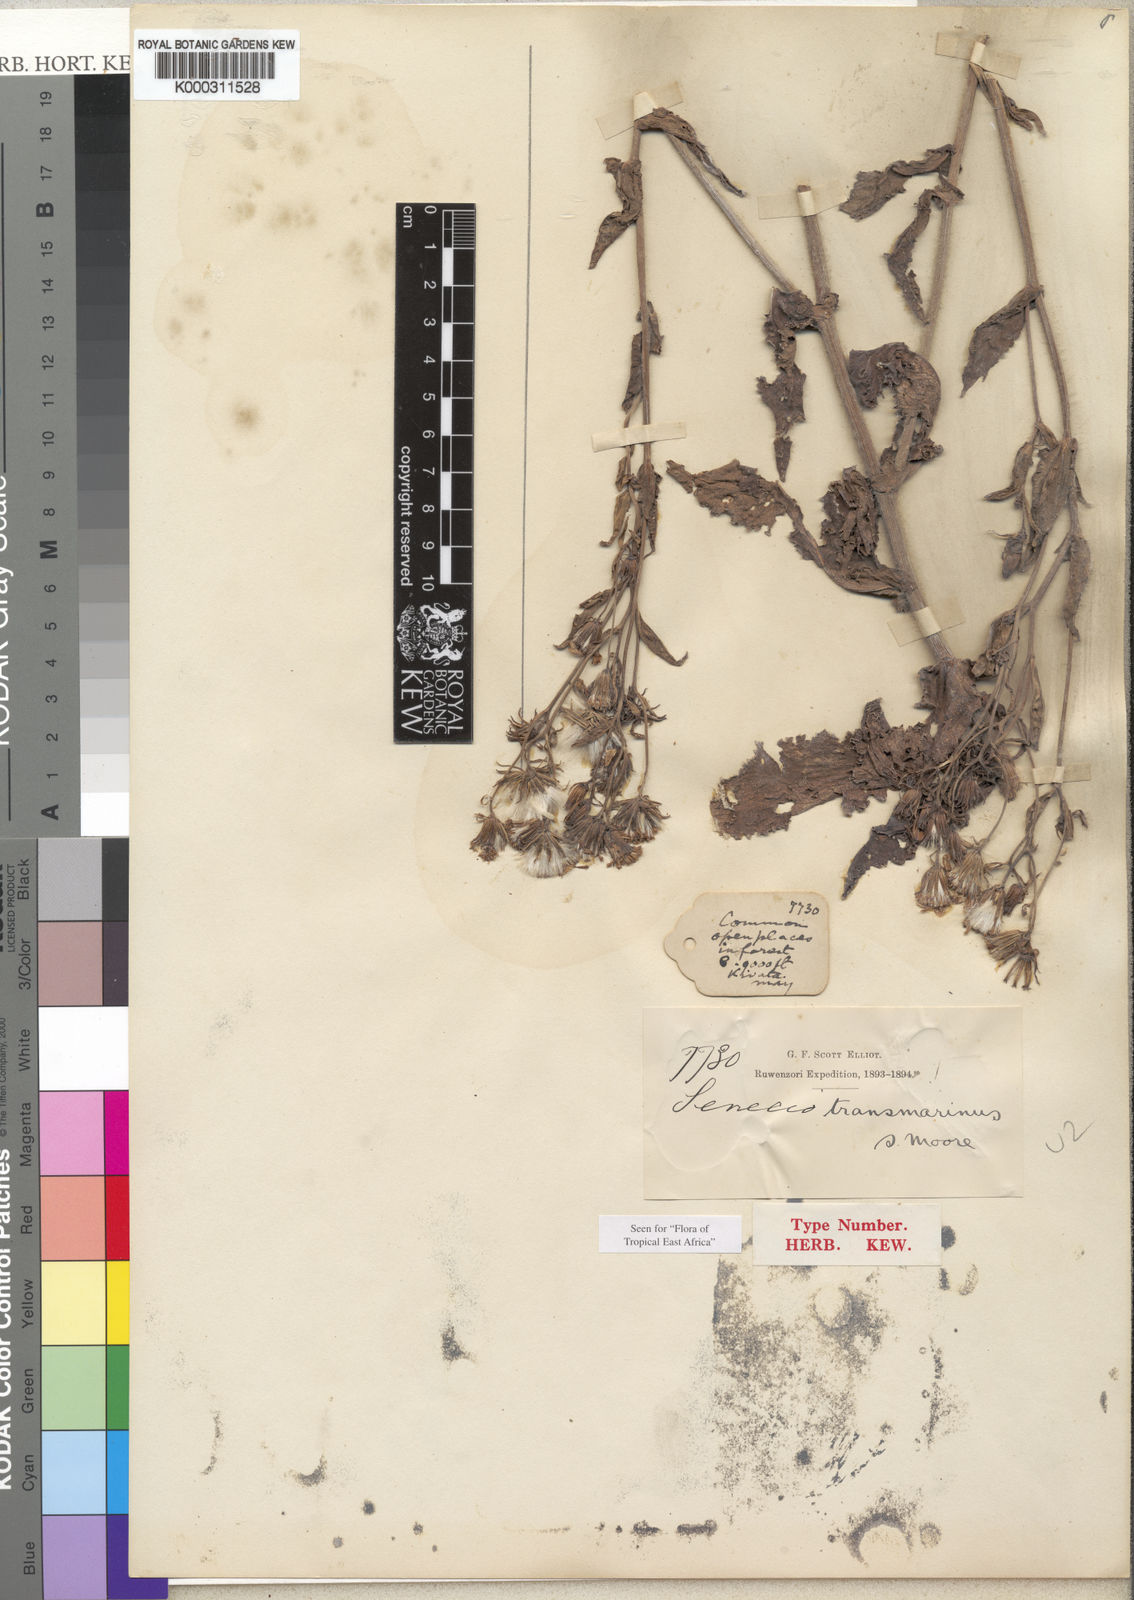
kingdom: Plantae
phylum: Tracheophyta
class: Magnoliopsida
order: Asterales
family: Asteraceae
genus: Senecio
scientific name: Senecio transmarinus
